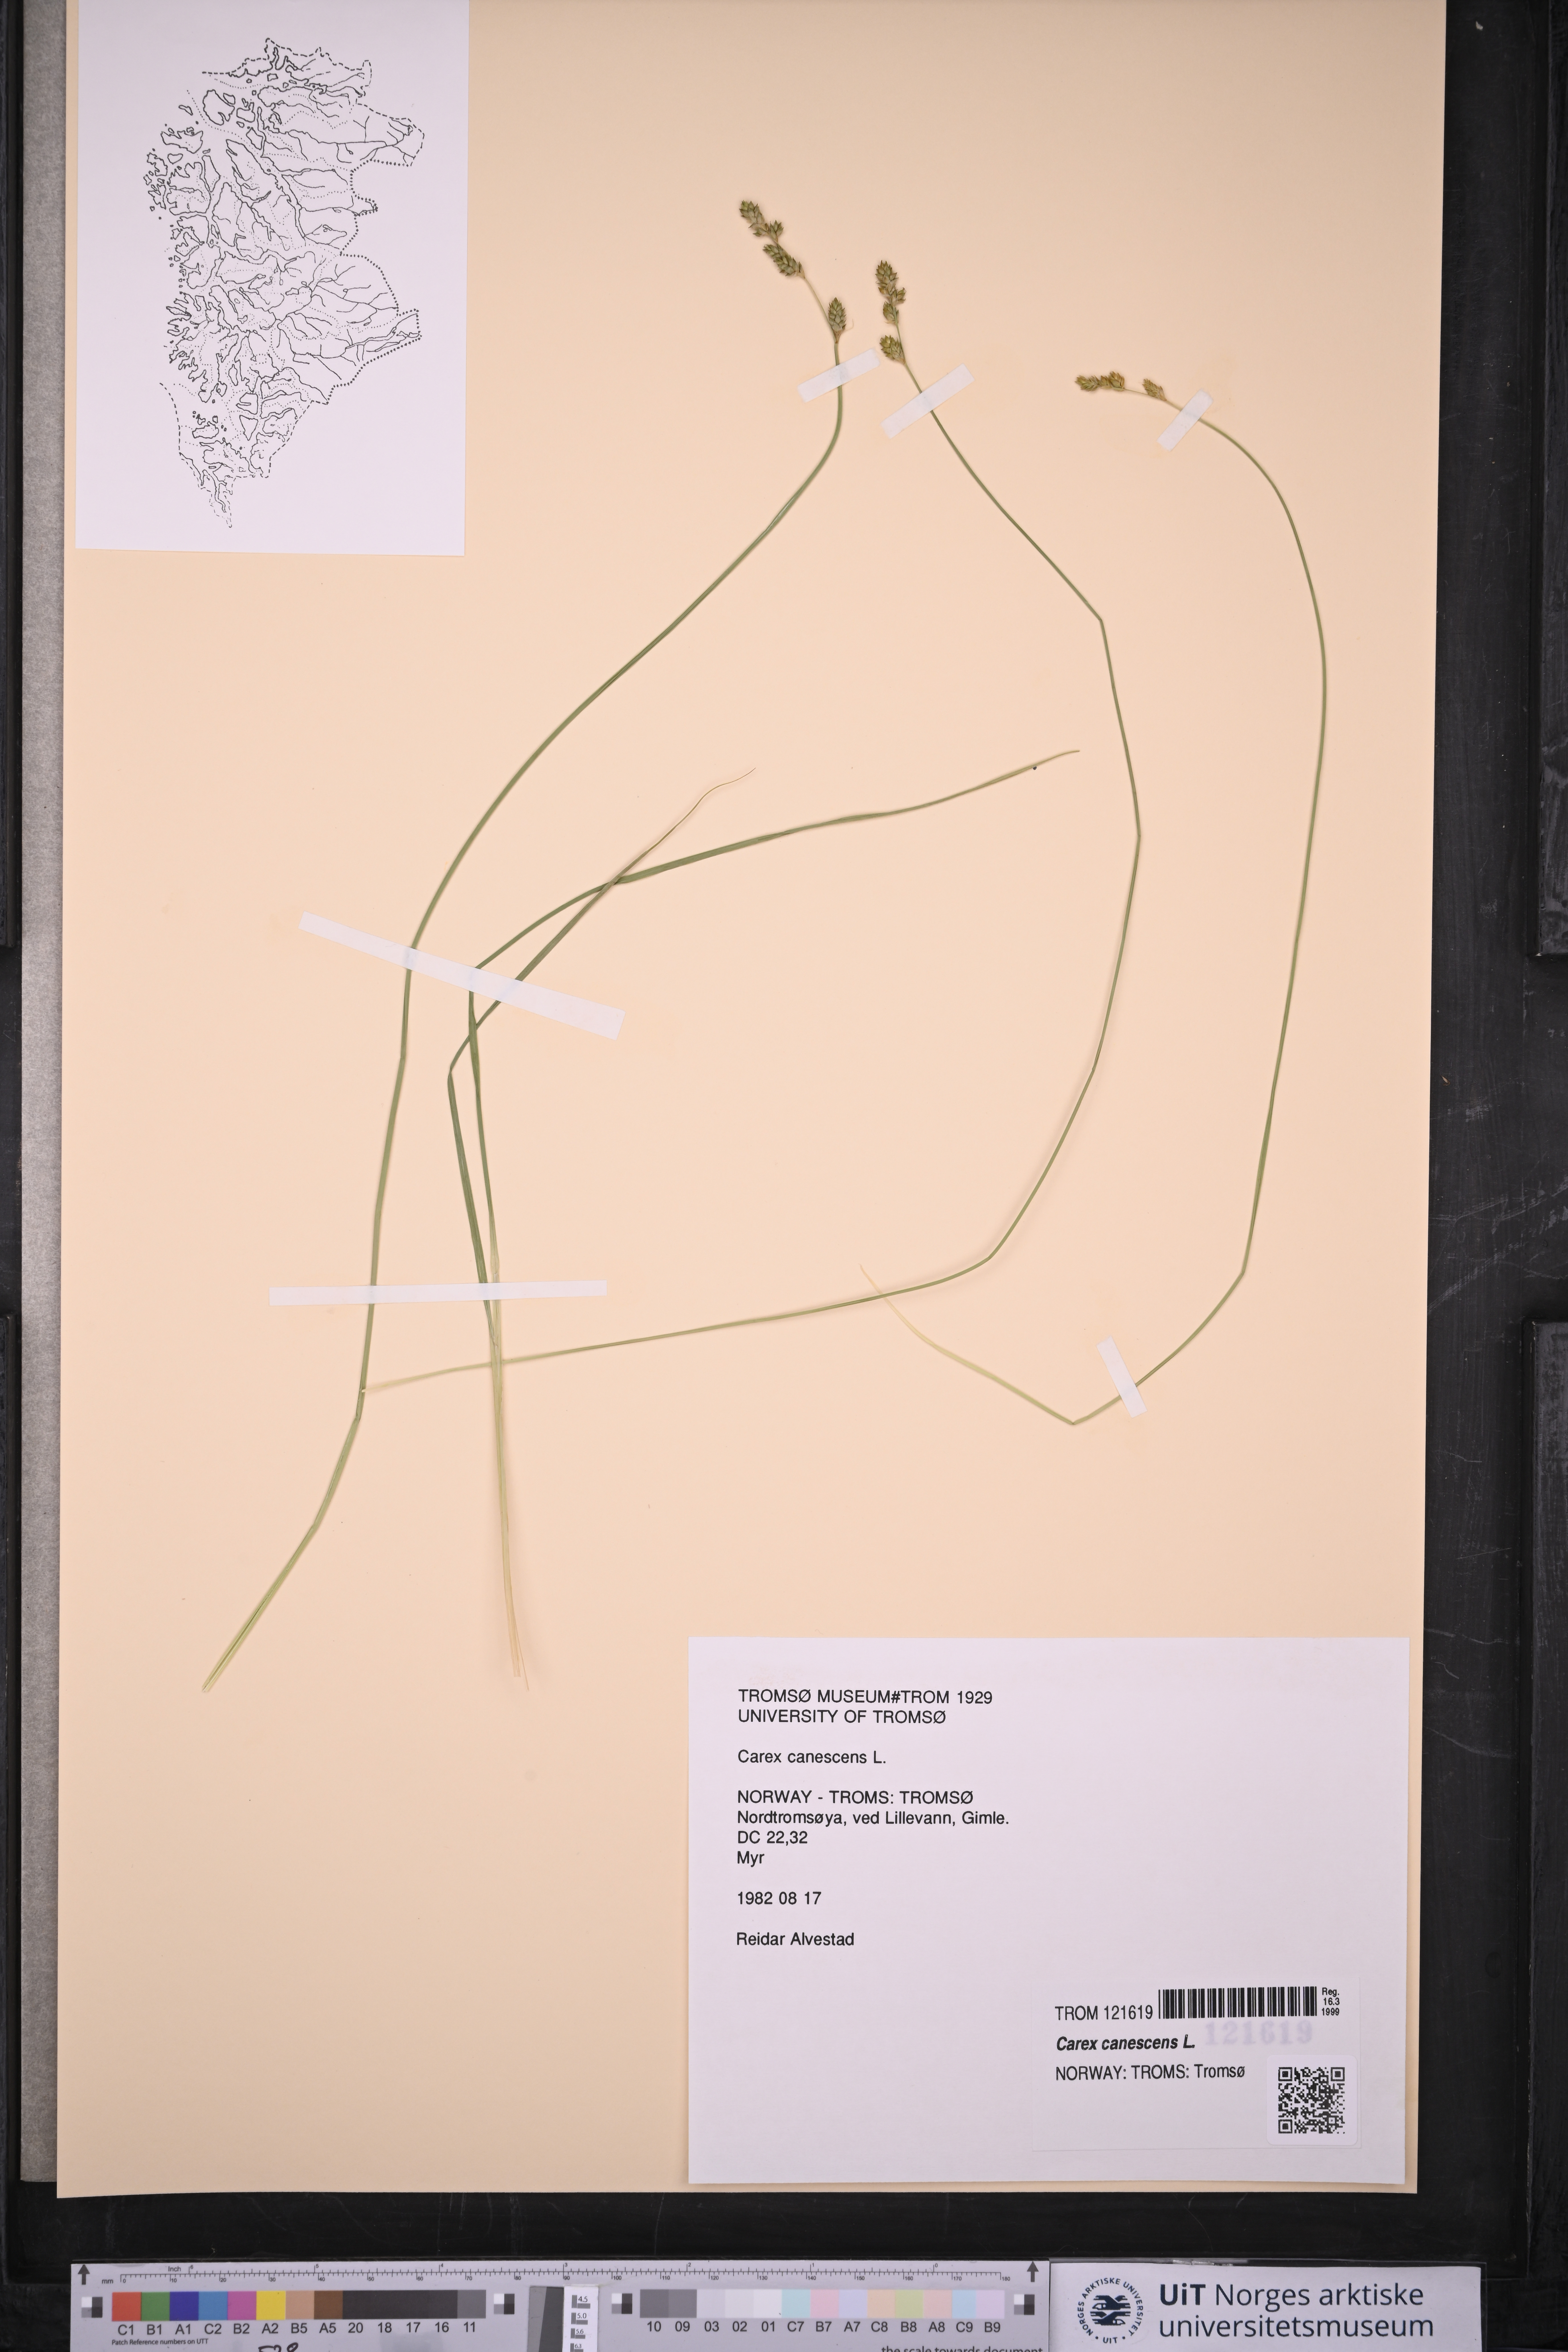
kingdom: Plantae
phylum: Tracheophyta
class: Liliopsida
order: Poales
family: Cyperaceae
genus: Carex
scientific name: Carex canescens
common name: White sedge
